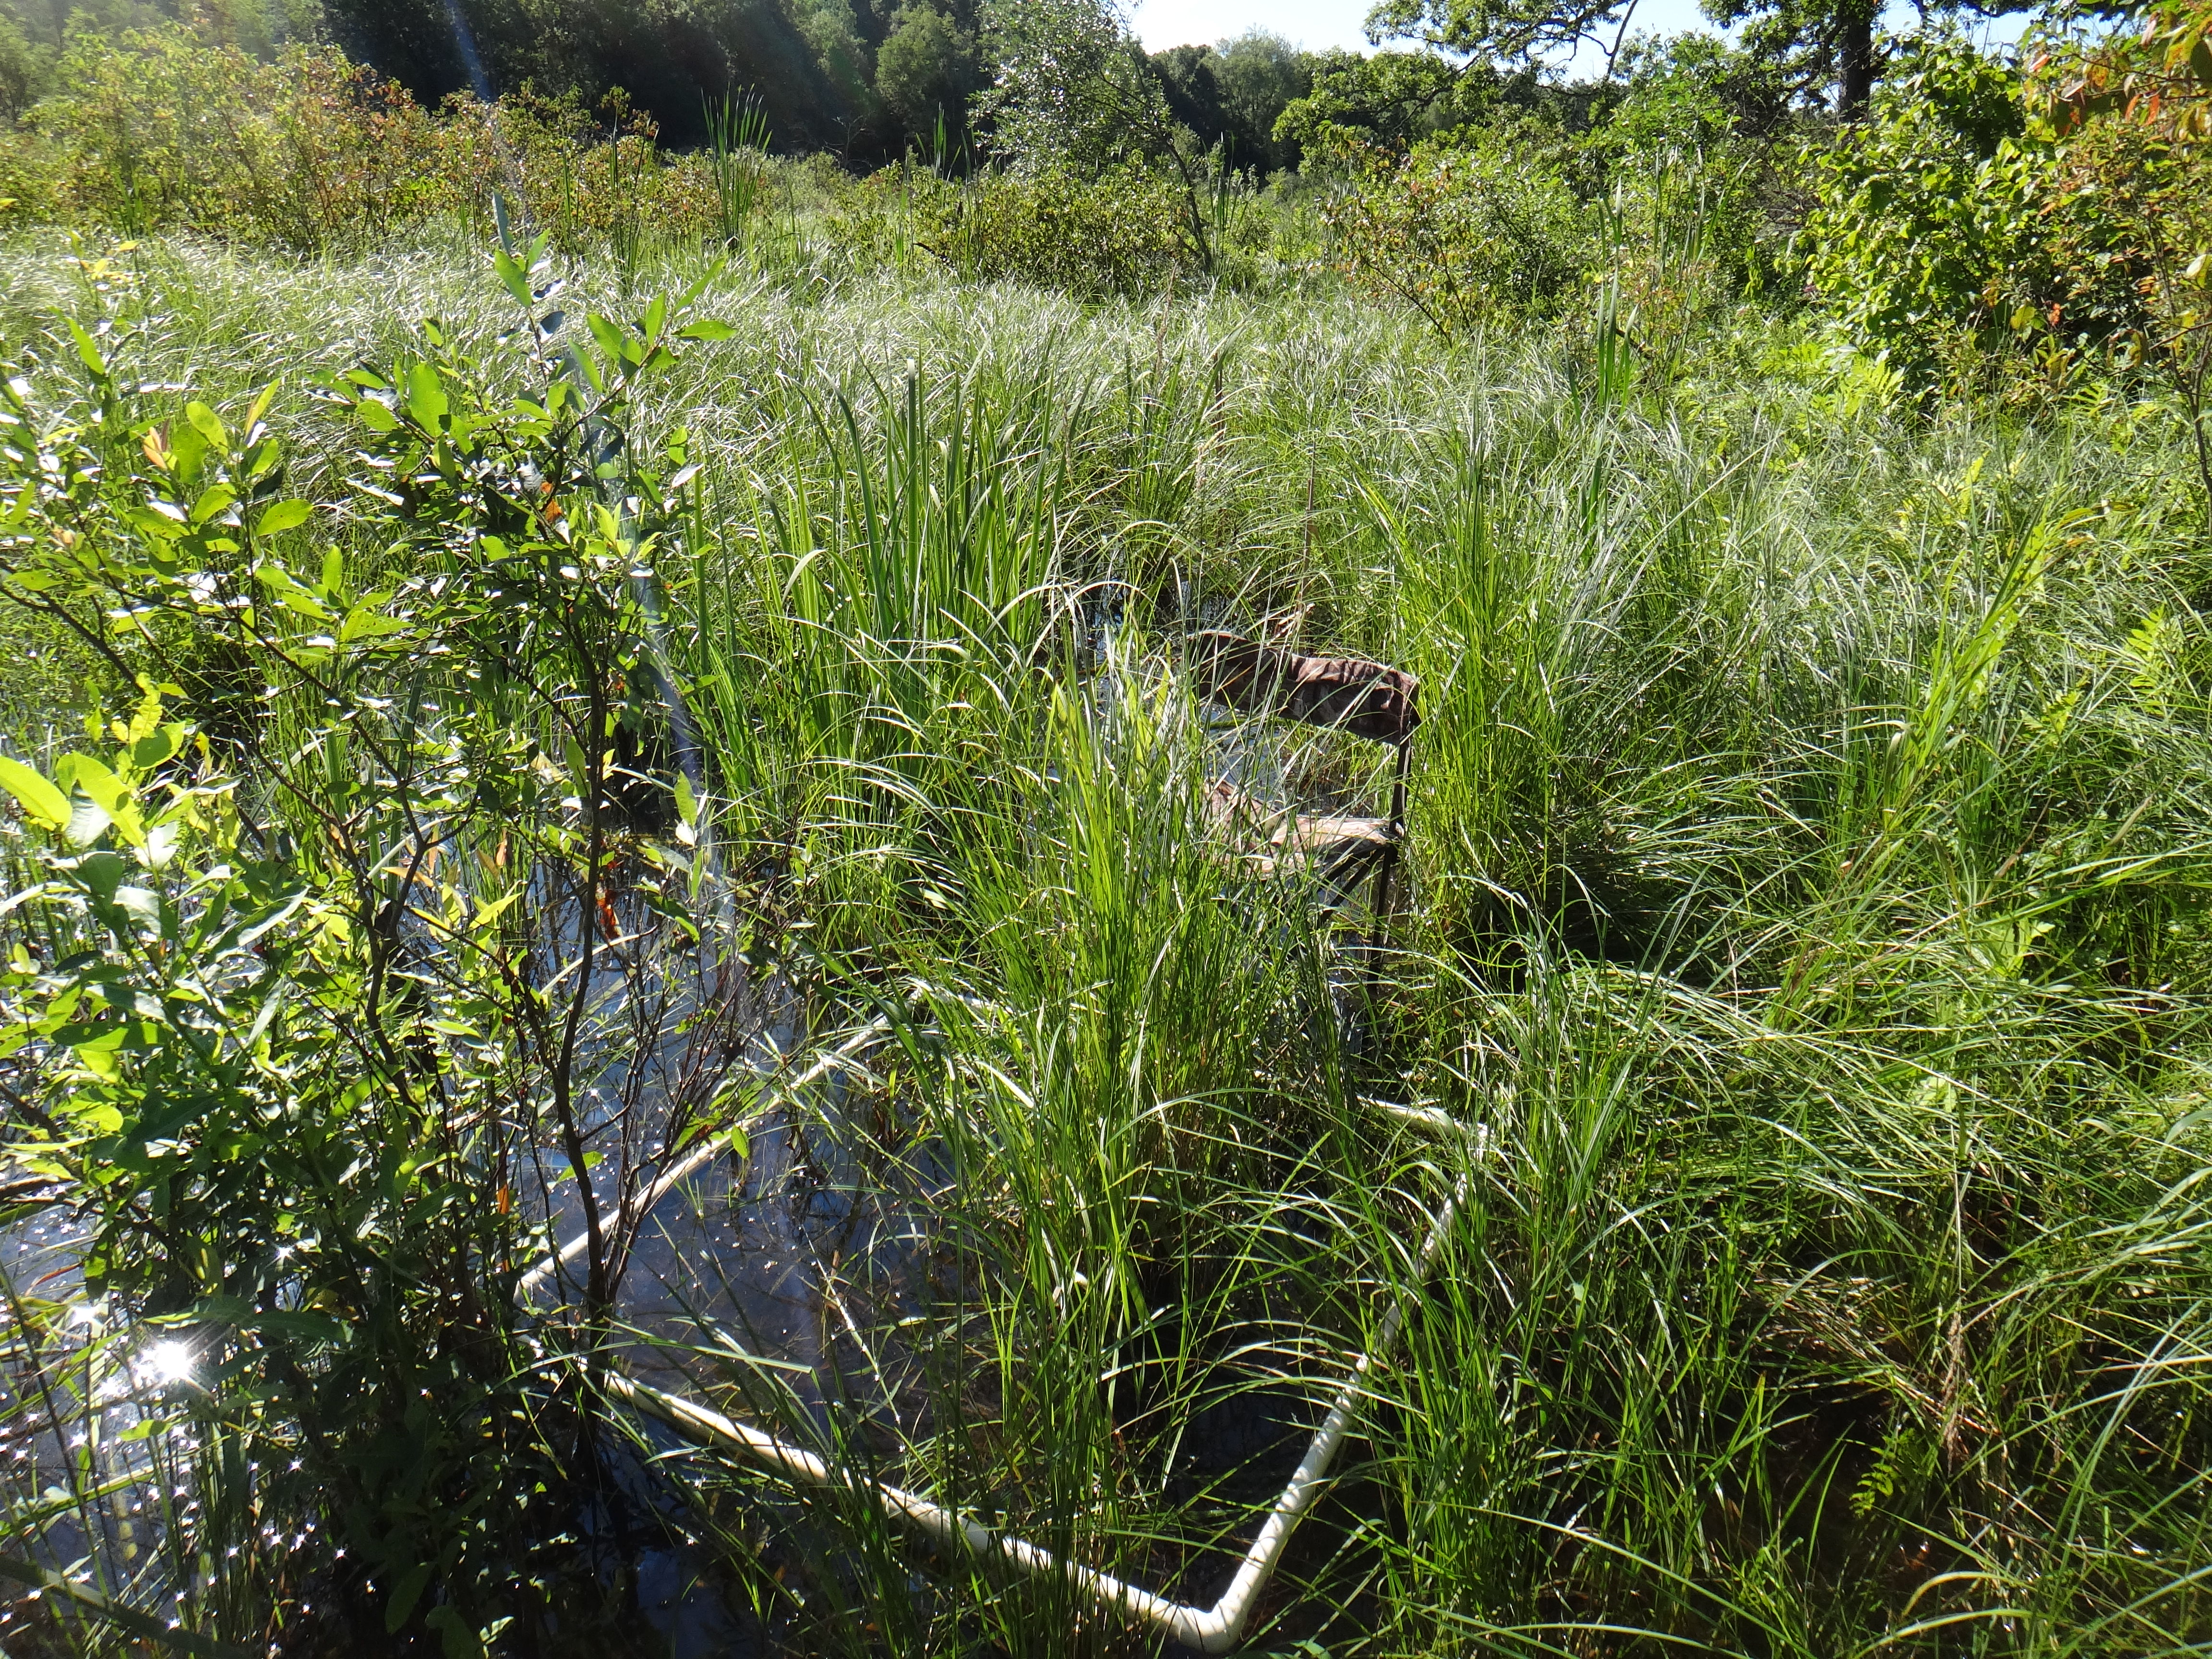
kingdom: Plantae
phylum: Tracheophyta
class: Magnoliopsida
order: Caryophyllales
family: Polygonaceae
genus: Persicaria
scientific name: Persicaria amphibia
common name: Amphibious bistort
